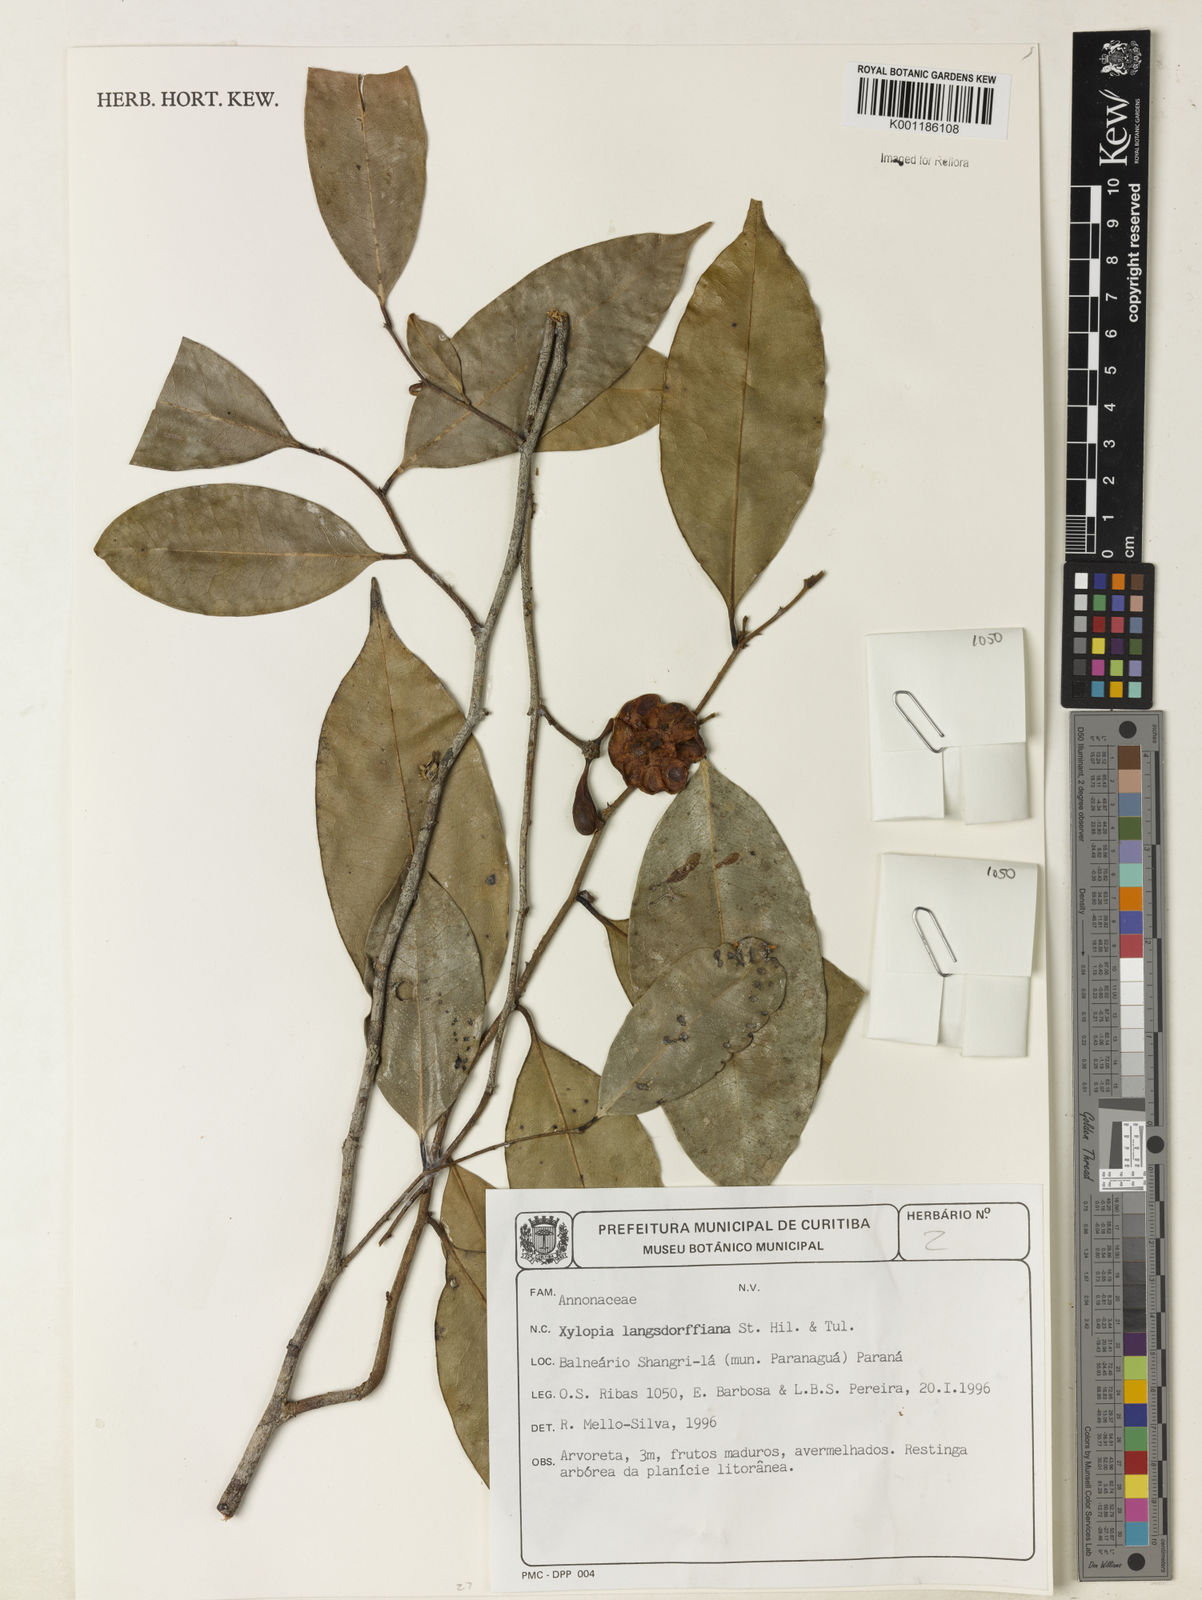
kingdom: Plantae
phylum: Tracheophyta
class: Magnoliopsida
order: Magnoliales
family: Annonaceae
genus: Xylopia
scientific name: Xylopia langsdorfiana
